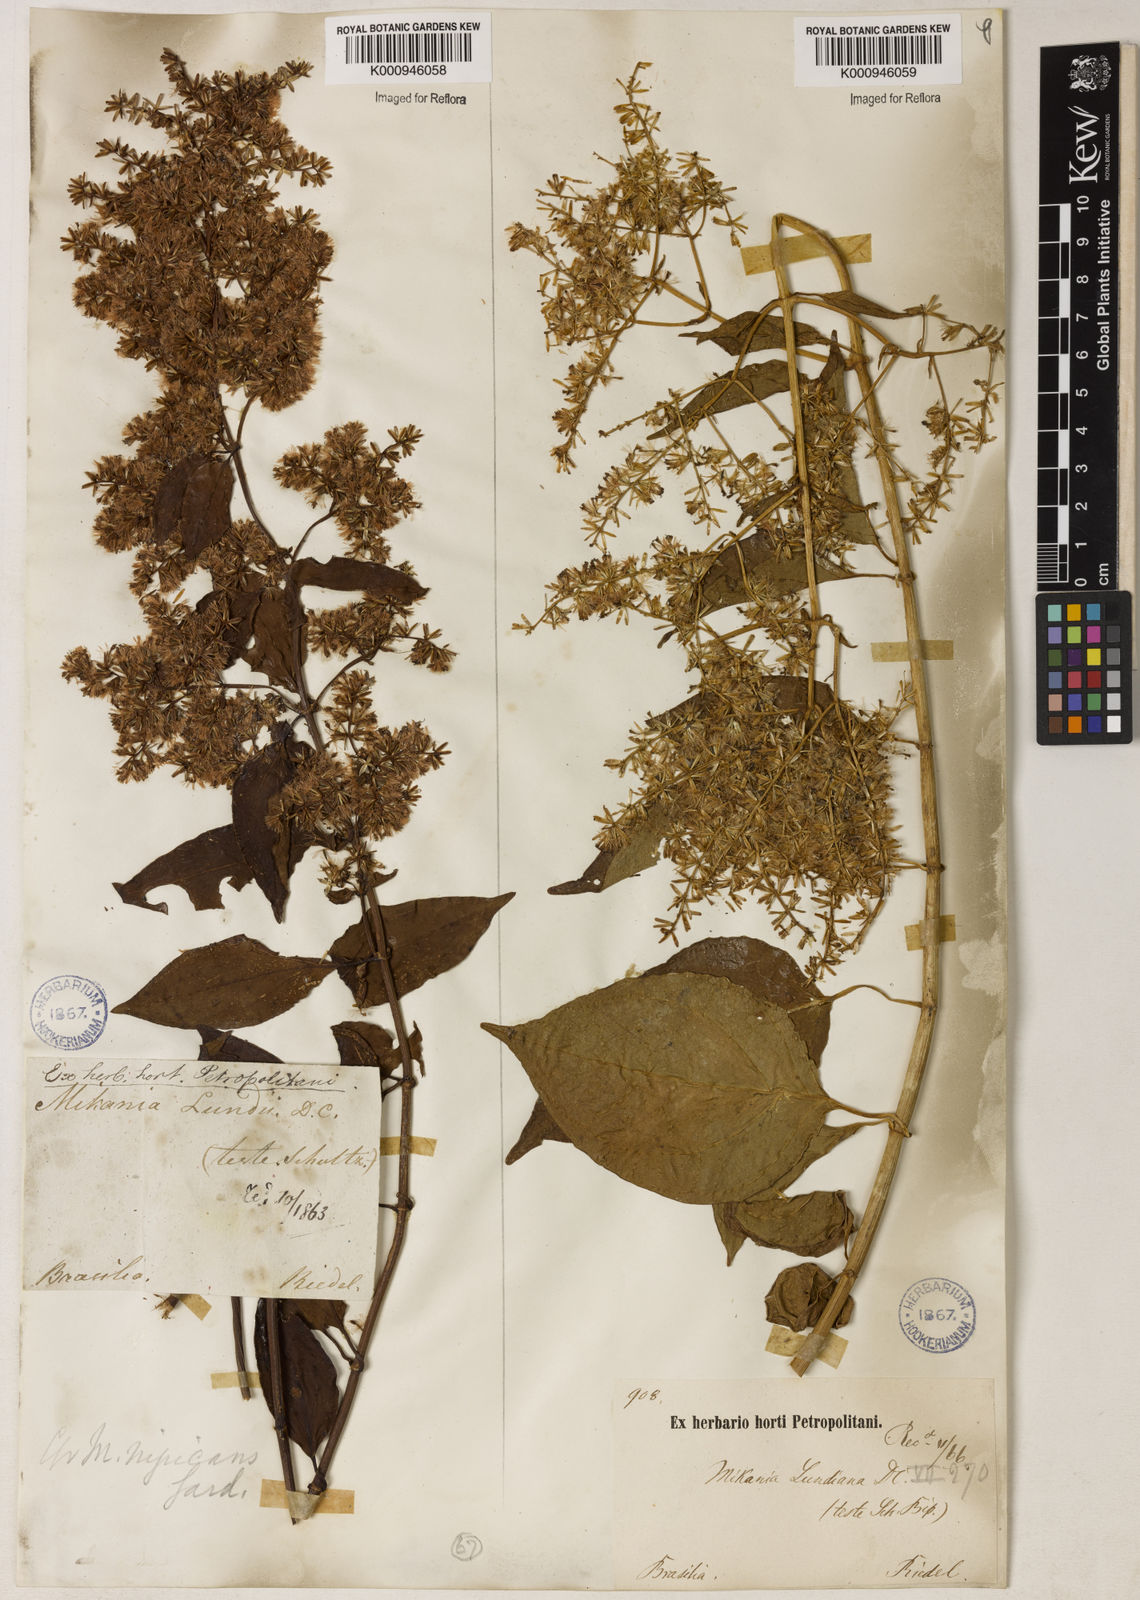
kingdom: Plantae
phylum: Tracheophyta
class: Magnoliopsida
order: Asterales
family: Asteraceae
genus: Mikania
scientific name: Mikania lundiana
